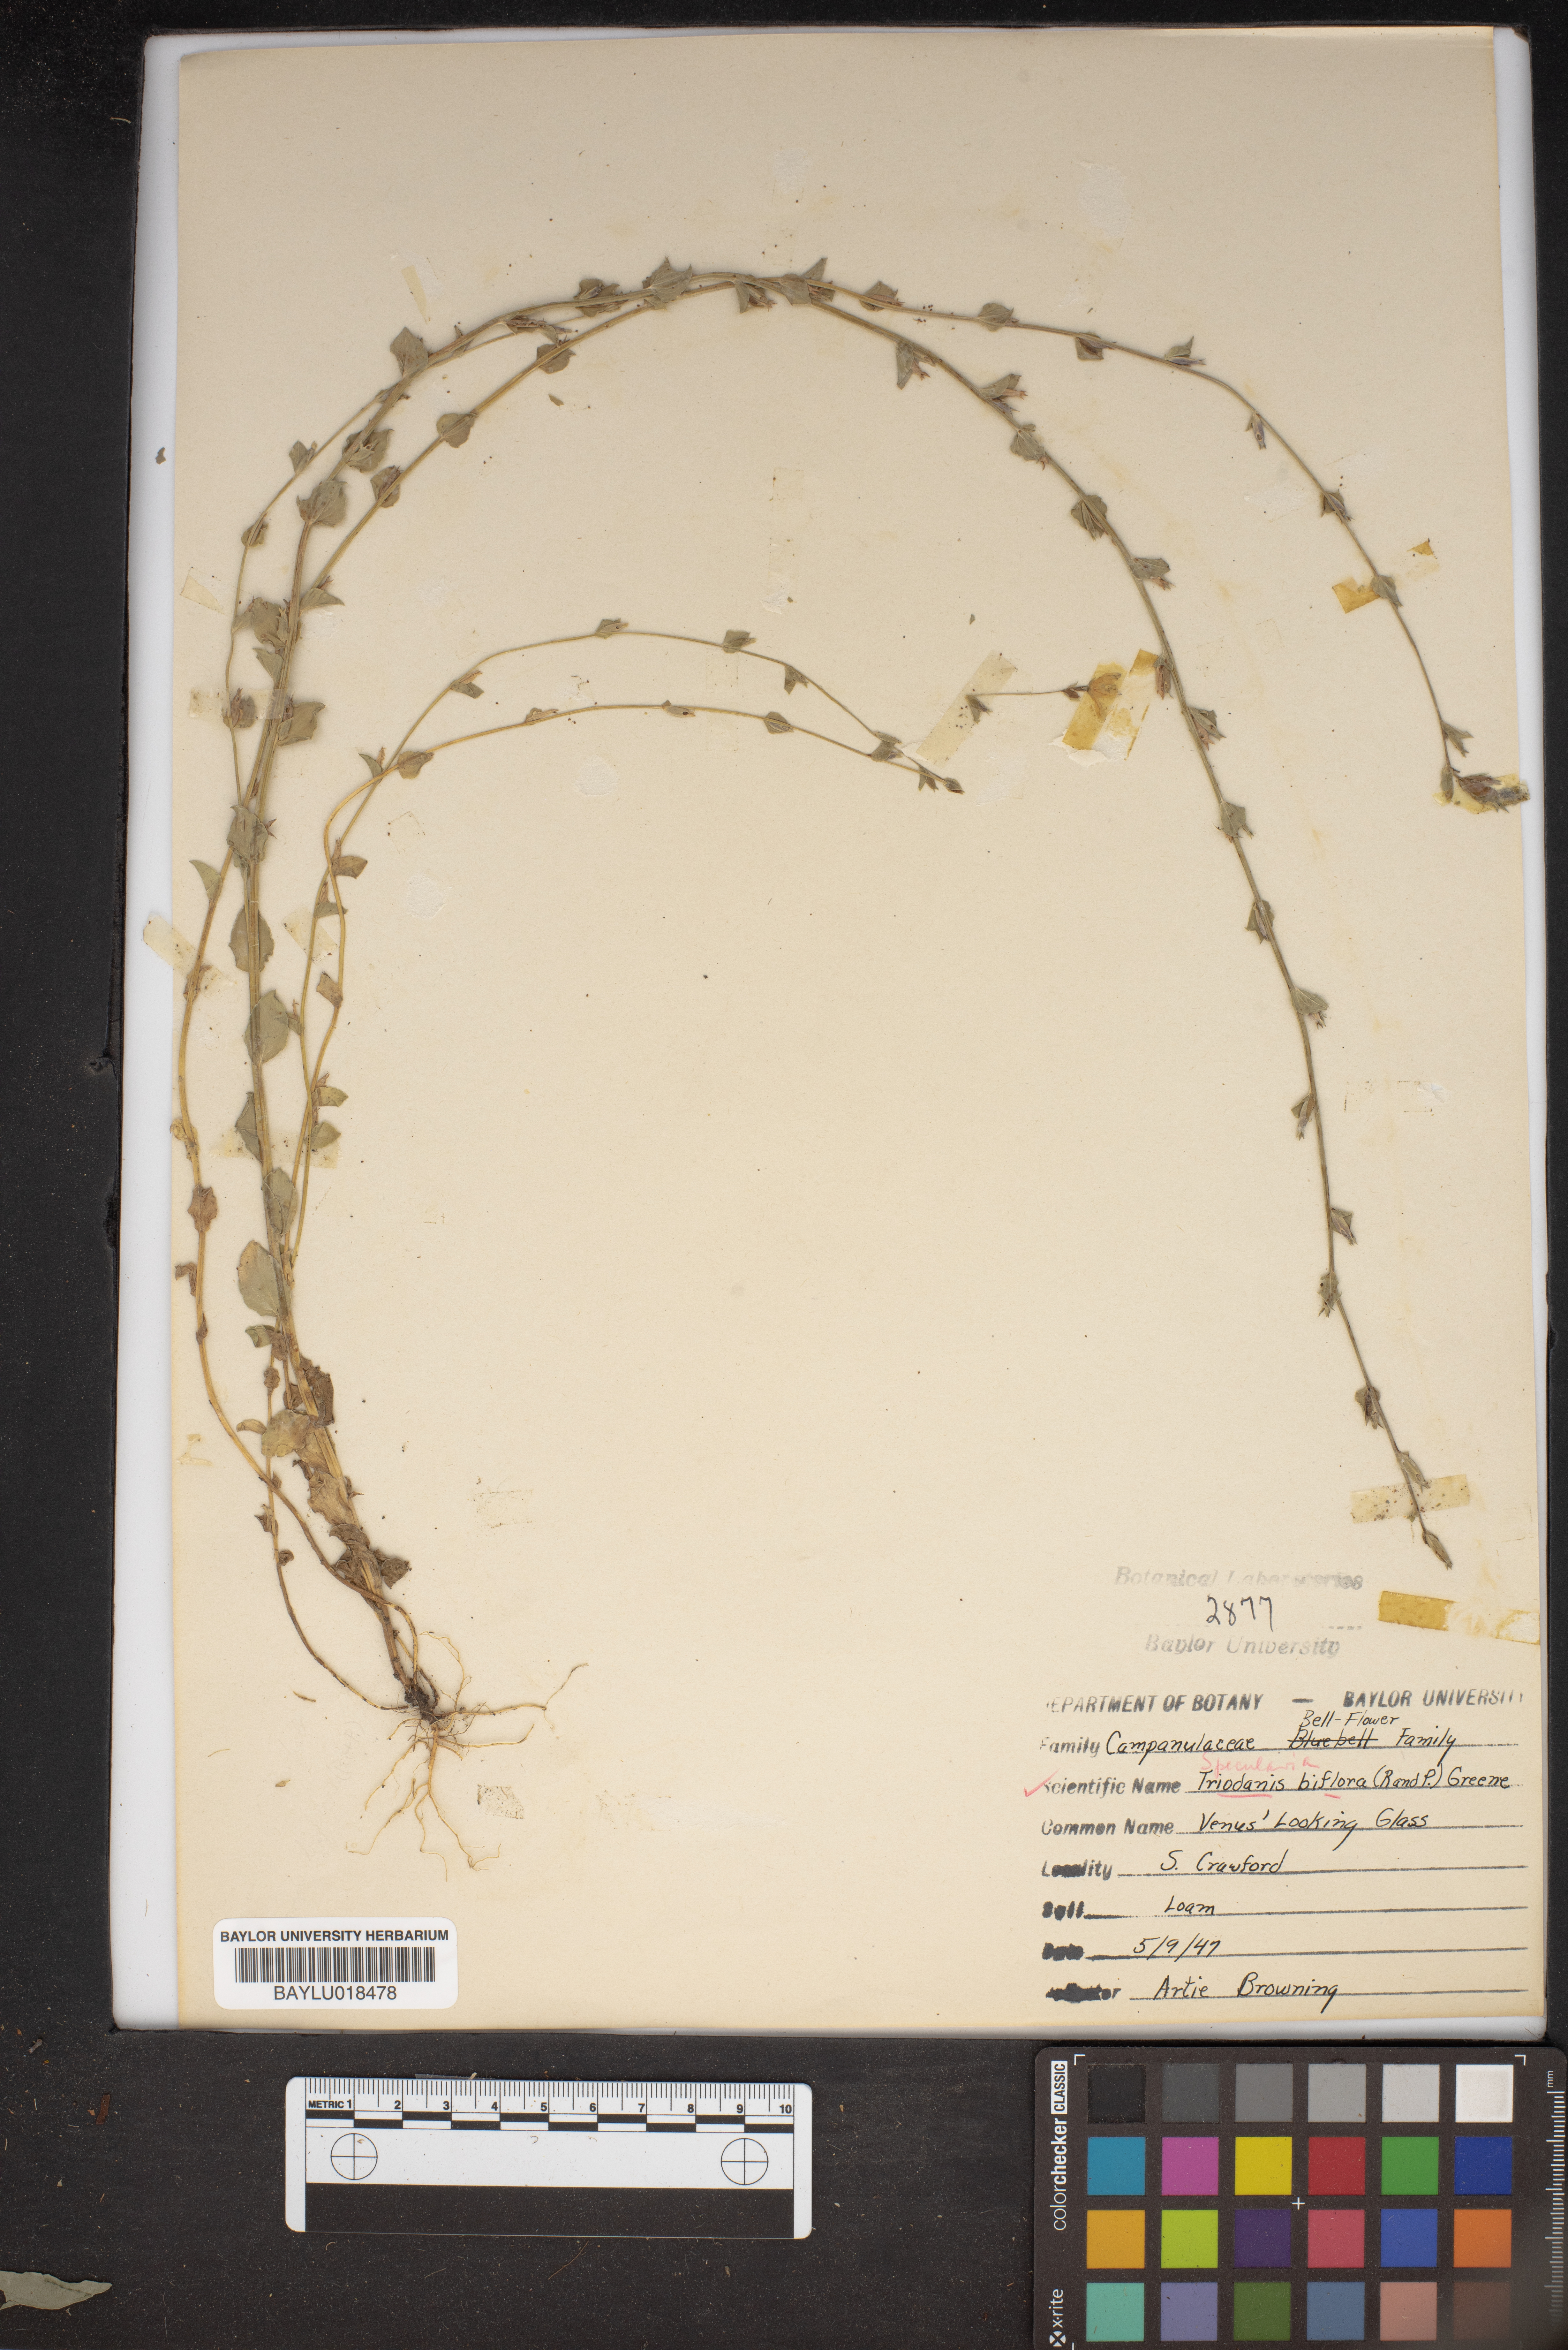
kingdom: Plantae
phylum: Tracheophyta
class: Magnoliopsida
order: Asterales
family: Campanulaceae
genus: Triodanis
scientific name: Triodanis perfoliata
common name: Clasping venus' looking-glass
